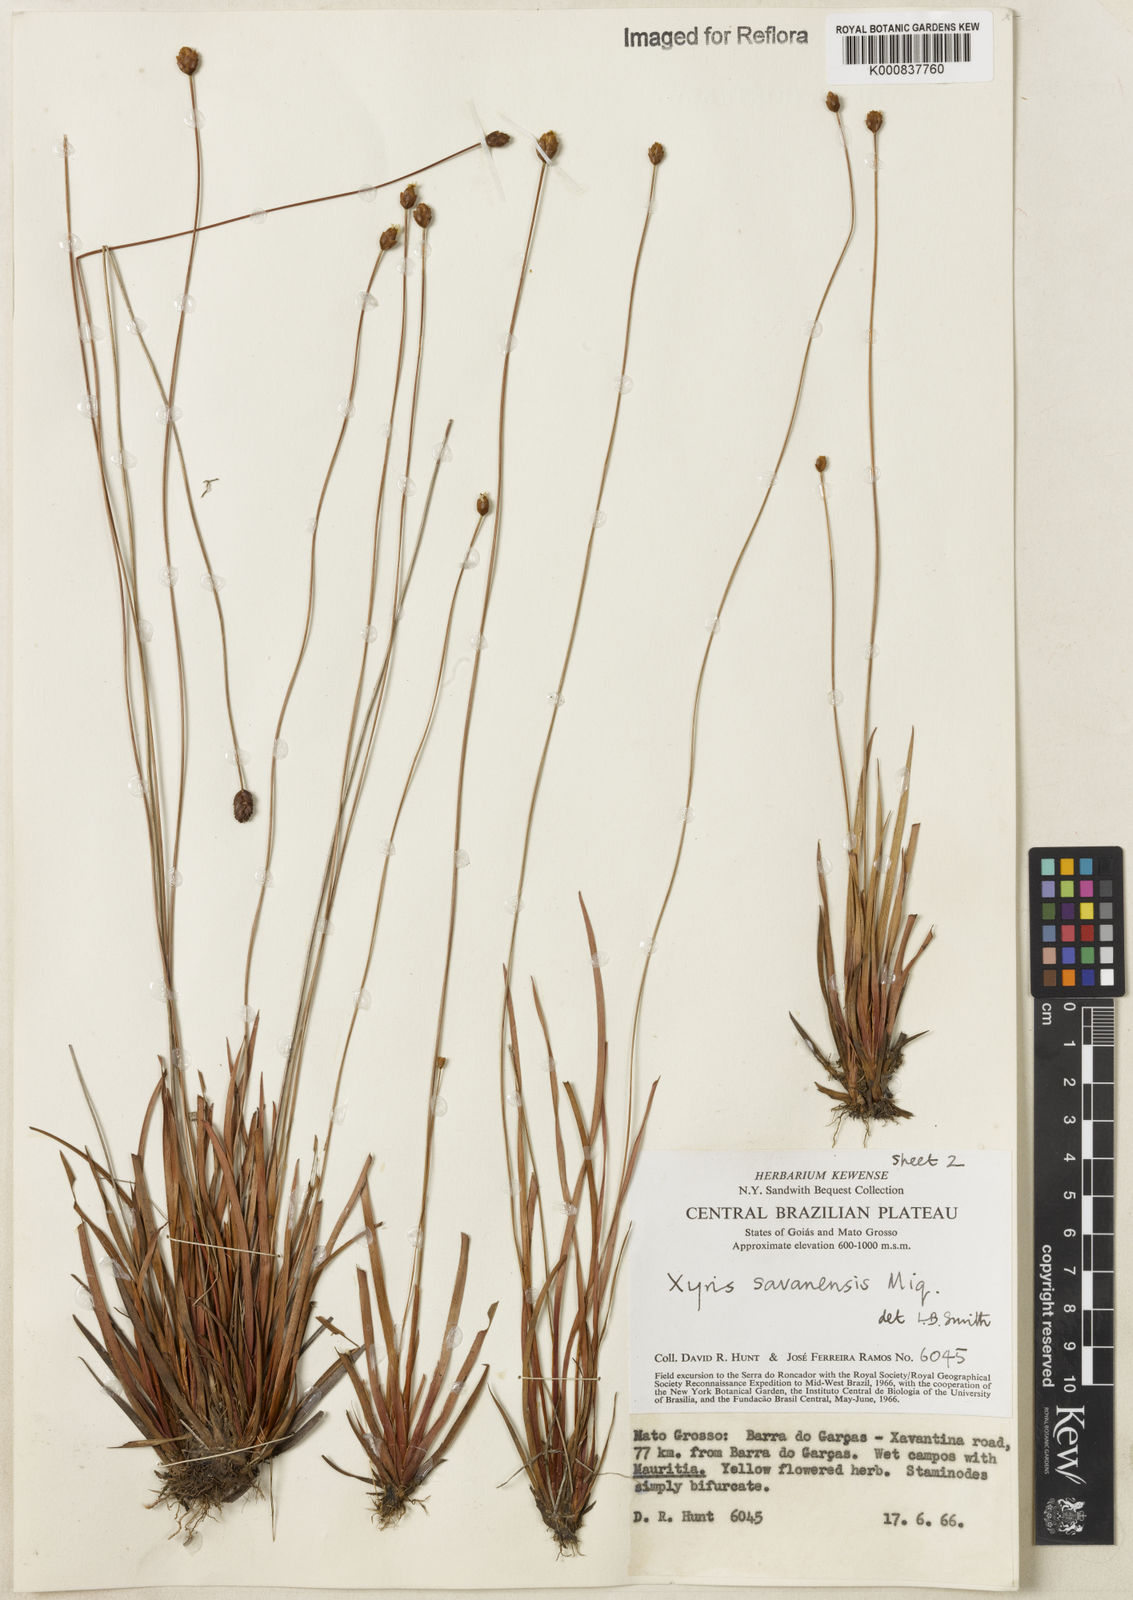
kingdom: Plantae
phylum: Tracheophyta
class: Liliopsida
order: Poales
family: Xyridaceae
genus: Xyris
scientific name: Xyris savanensis
